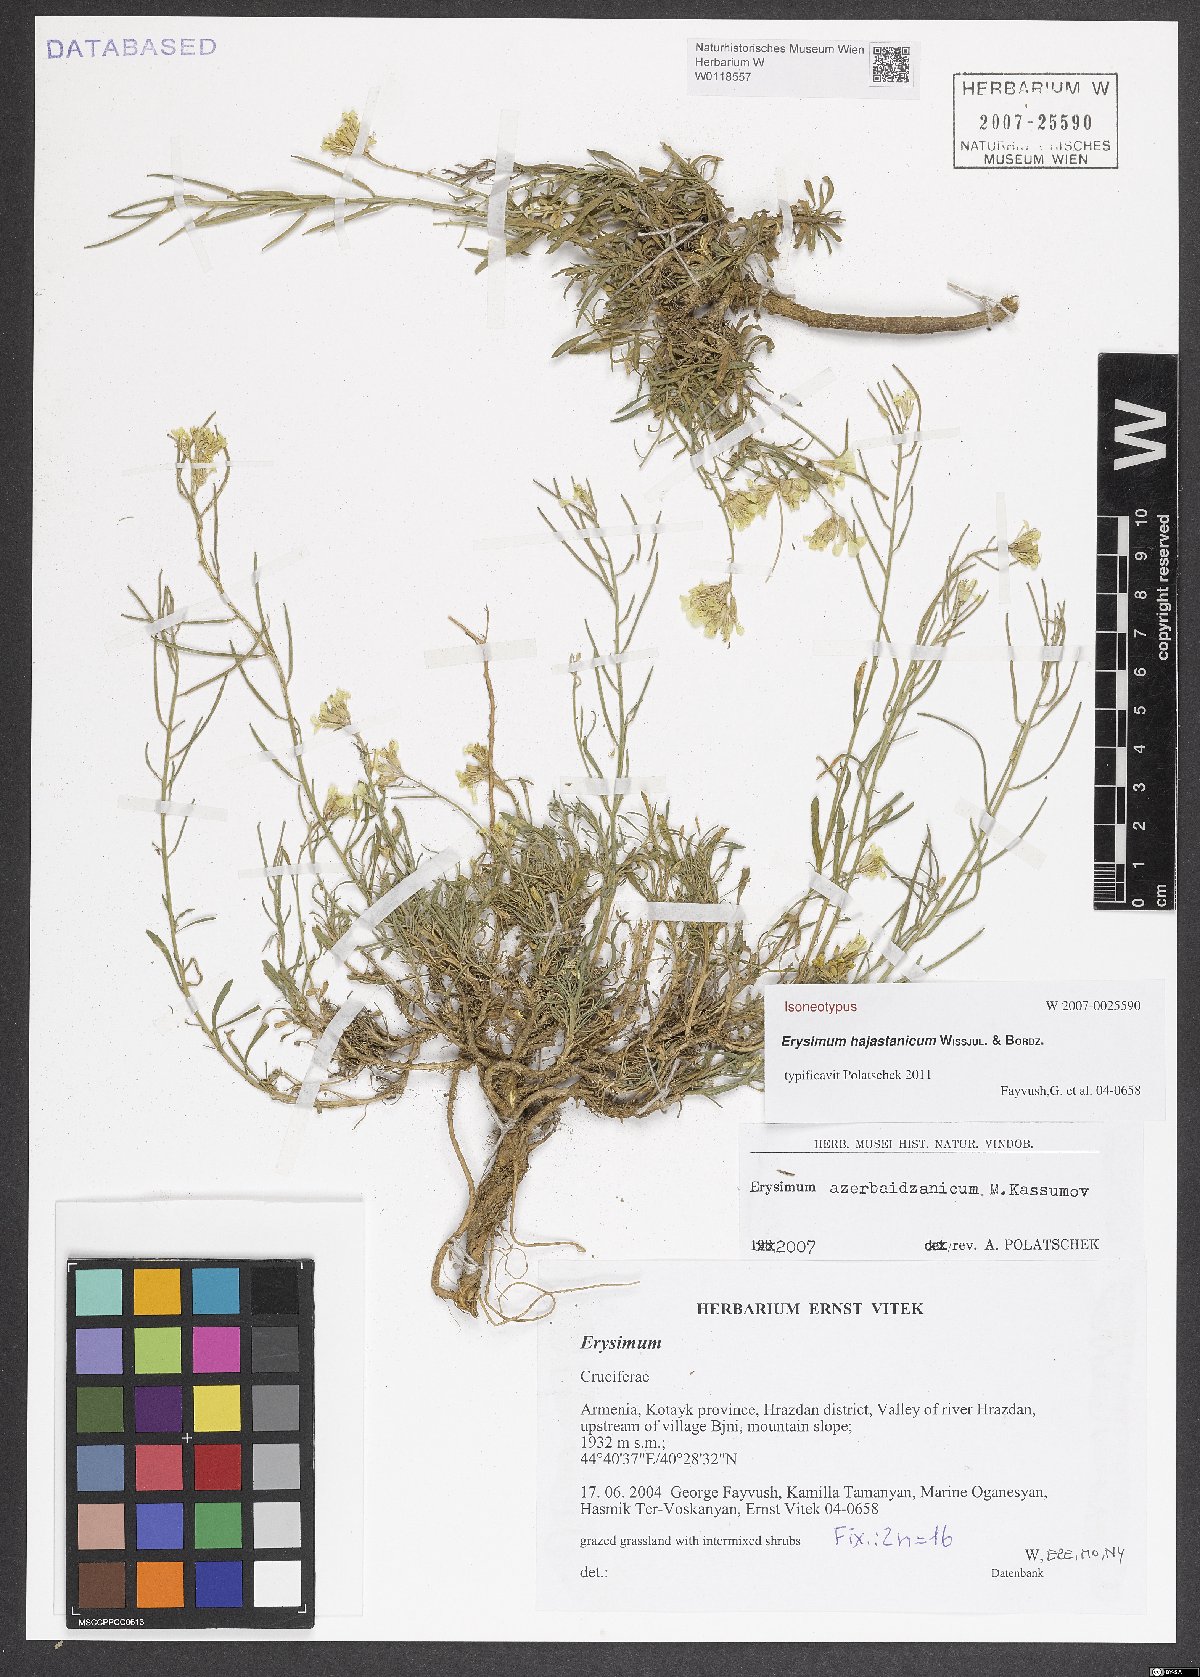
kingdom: Plantae
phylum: Tracheophyta
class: Magnoliopsida
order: Brassicales
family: Brassicaceae
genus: Erysimum
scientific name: Erysimum hajastanicum
